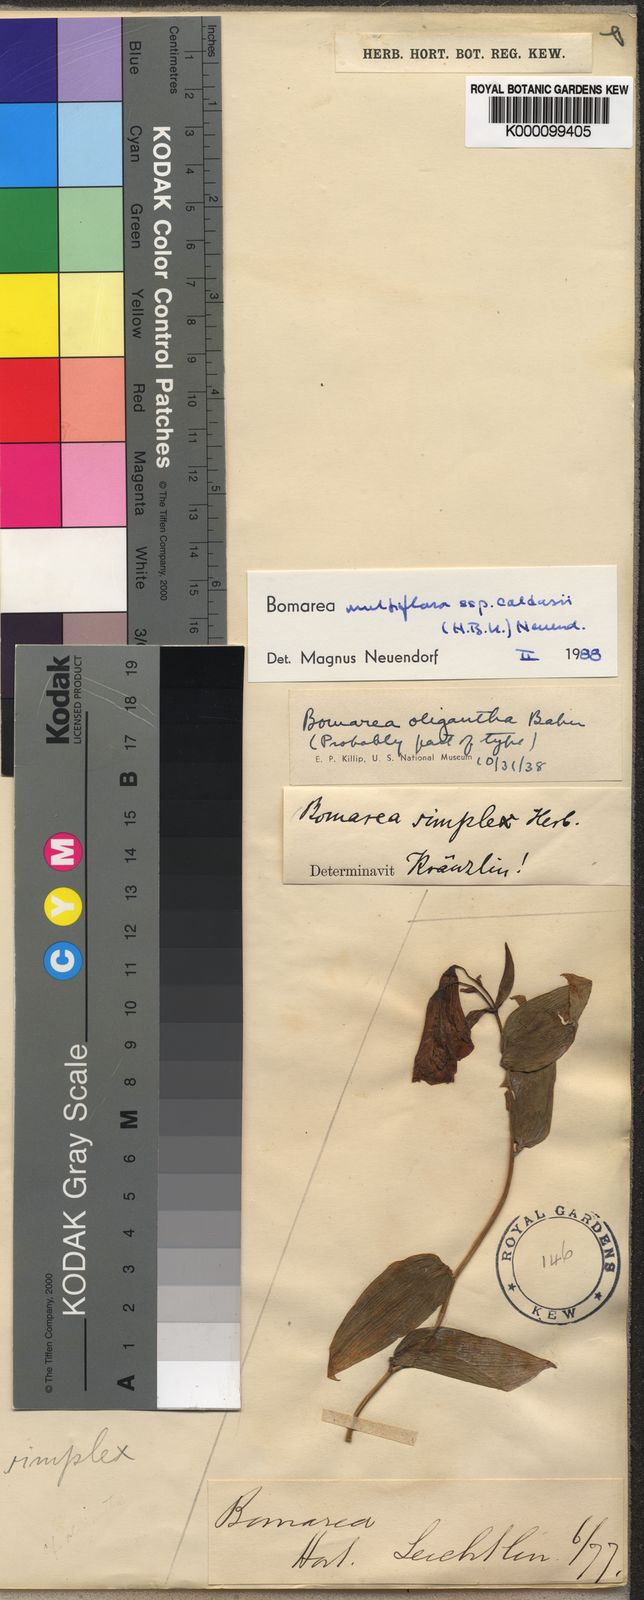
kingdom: Plantae
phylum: Tracheophyta
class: Liliopsida
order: Liliales
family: Alstroemeriaceae
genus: Bomarea
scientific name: Bomarea multiflora
